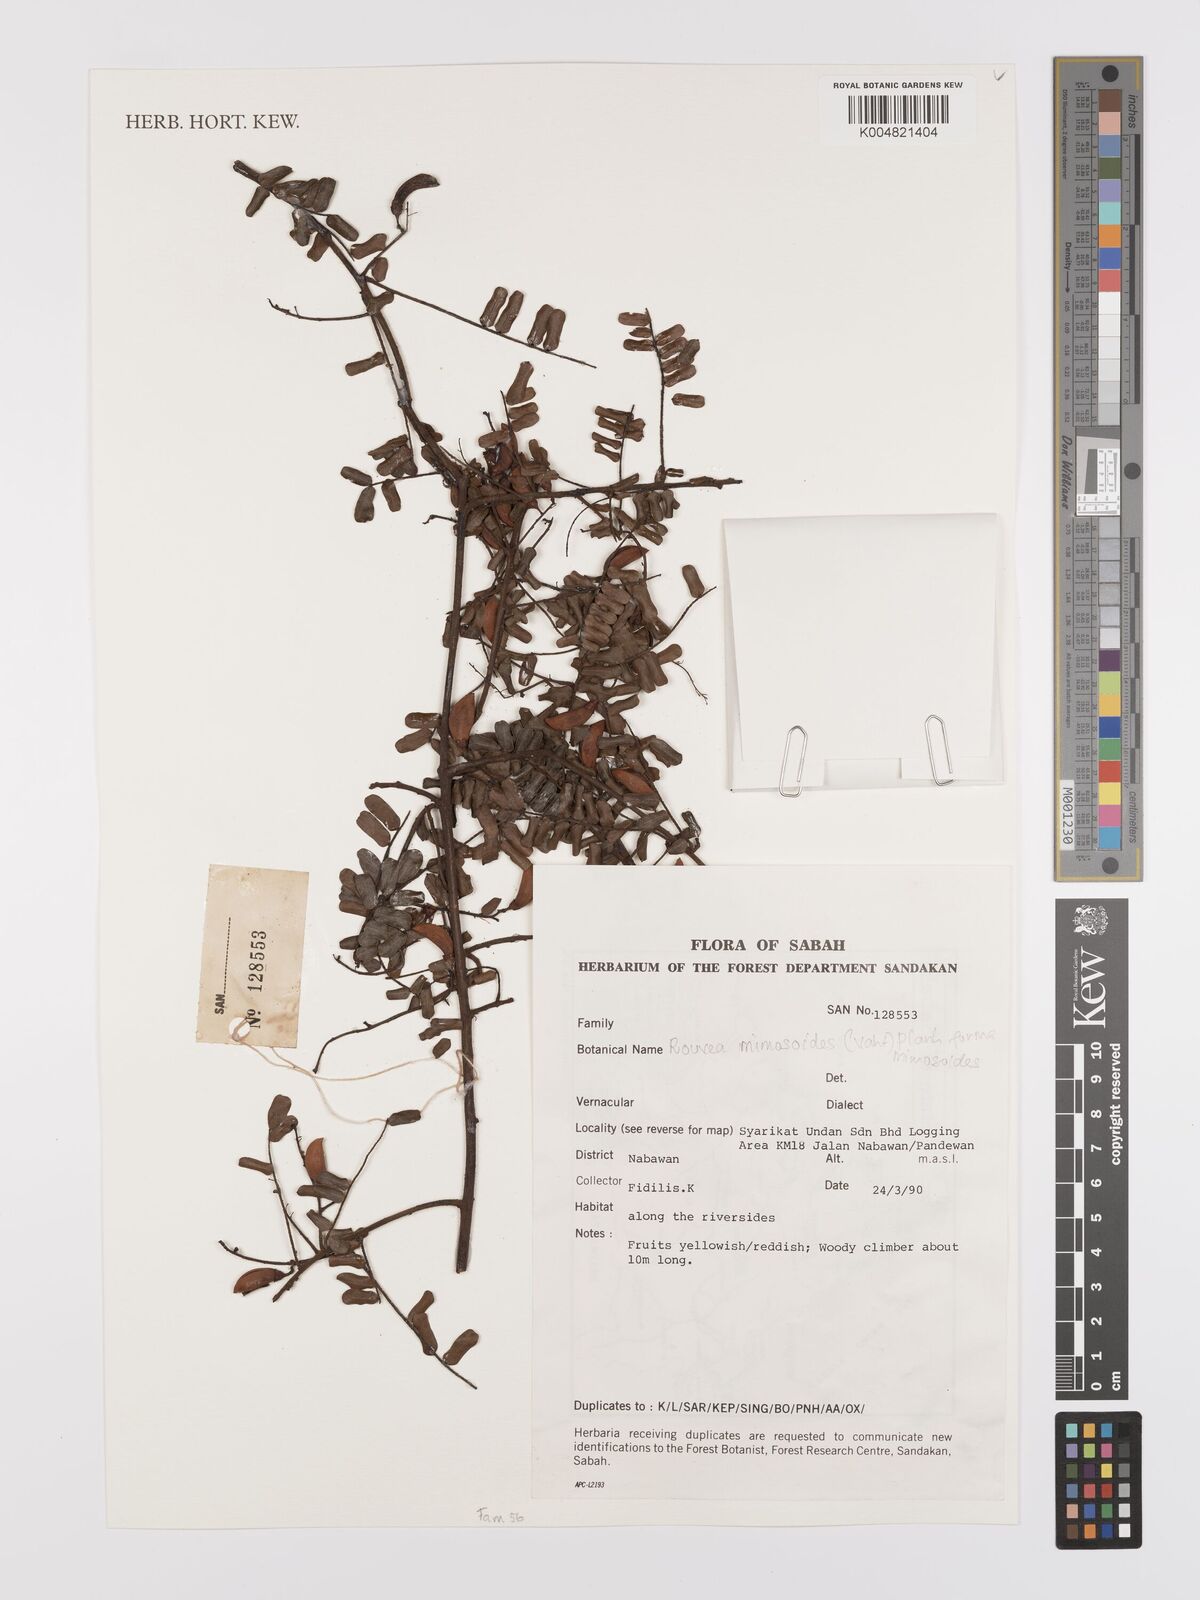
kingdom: Plantae
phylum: Tracheophyta
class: Magnoliopsida
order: Oxalidales
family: Connaraceae
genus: Rourea
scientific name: Rourea mimosoides
